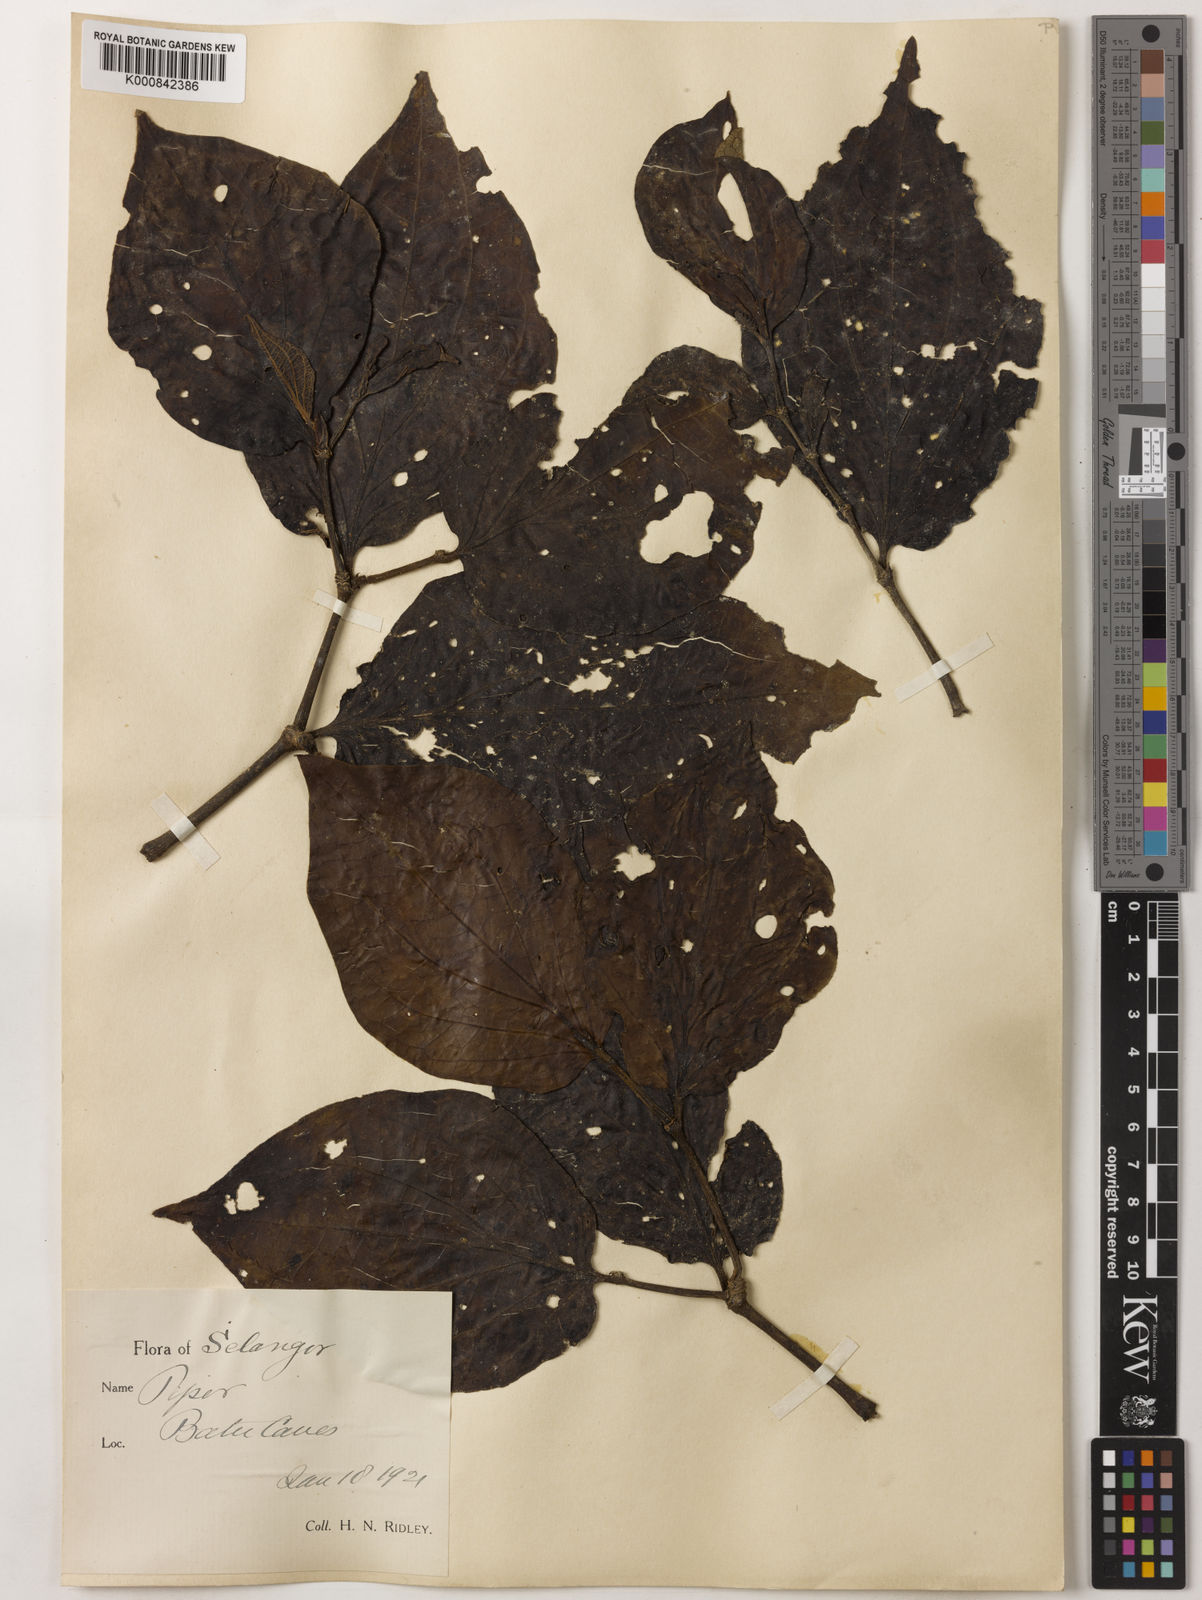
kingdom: Plantae
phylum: Tracheophyta
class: Magnoliopsida
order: Piperales
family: Piperaceae
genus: Piper
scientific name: Piper rostratum
